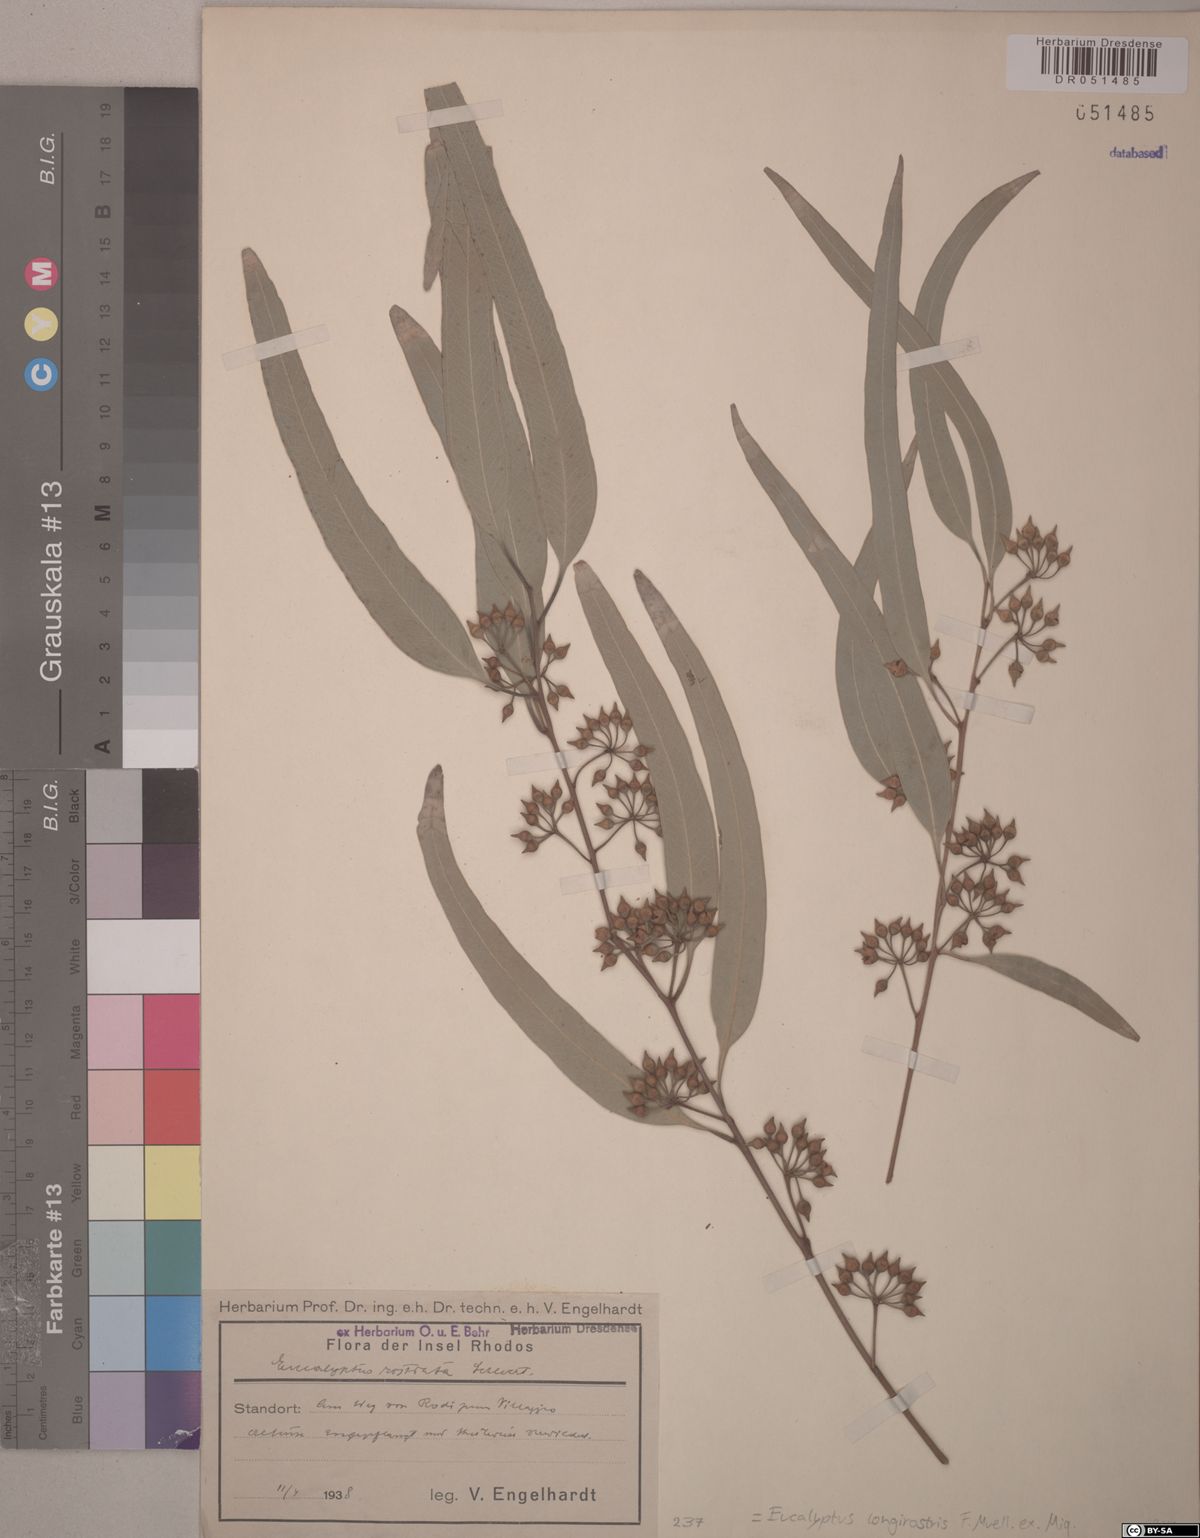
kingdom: Plantae
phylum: Tracheophyta
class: Magnoliopsida
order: Myrtales
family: Myrtaceae
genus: Eucalyptus
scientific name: Eucalyptus camaldulensis
